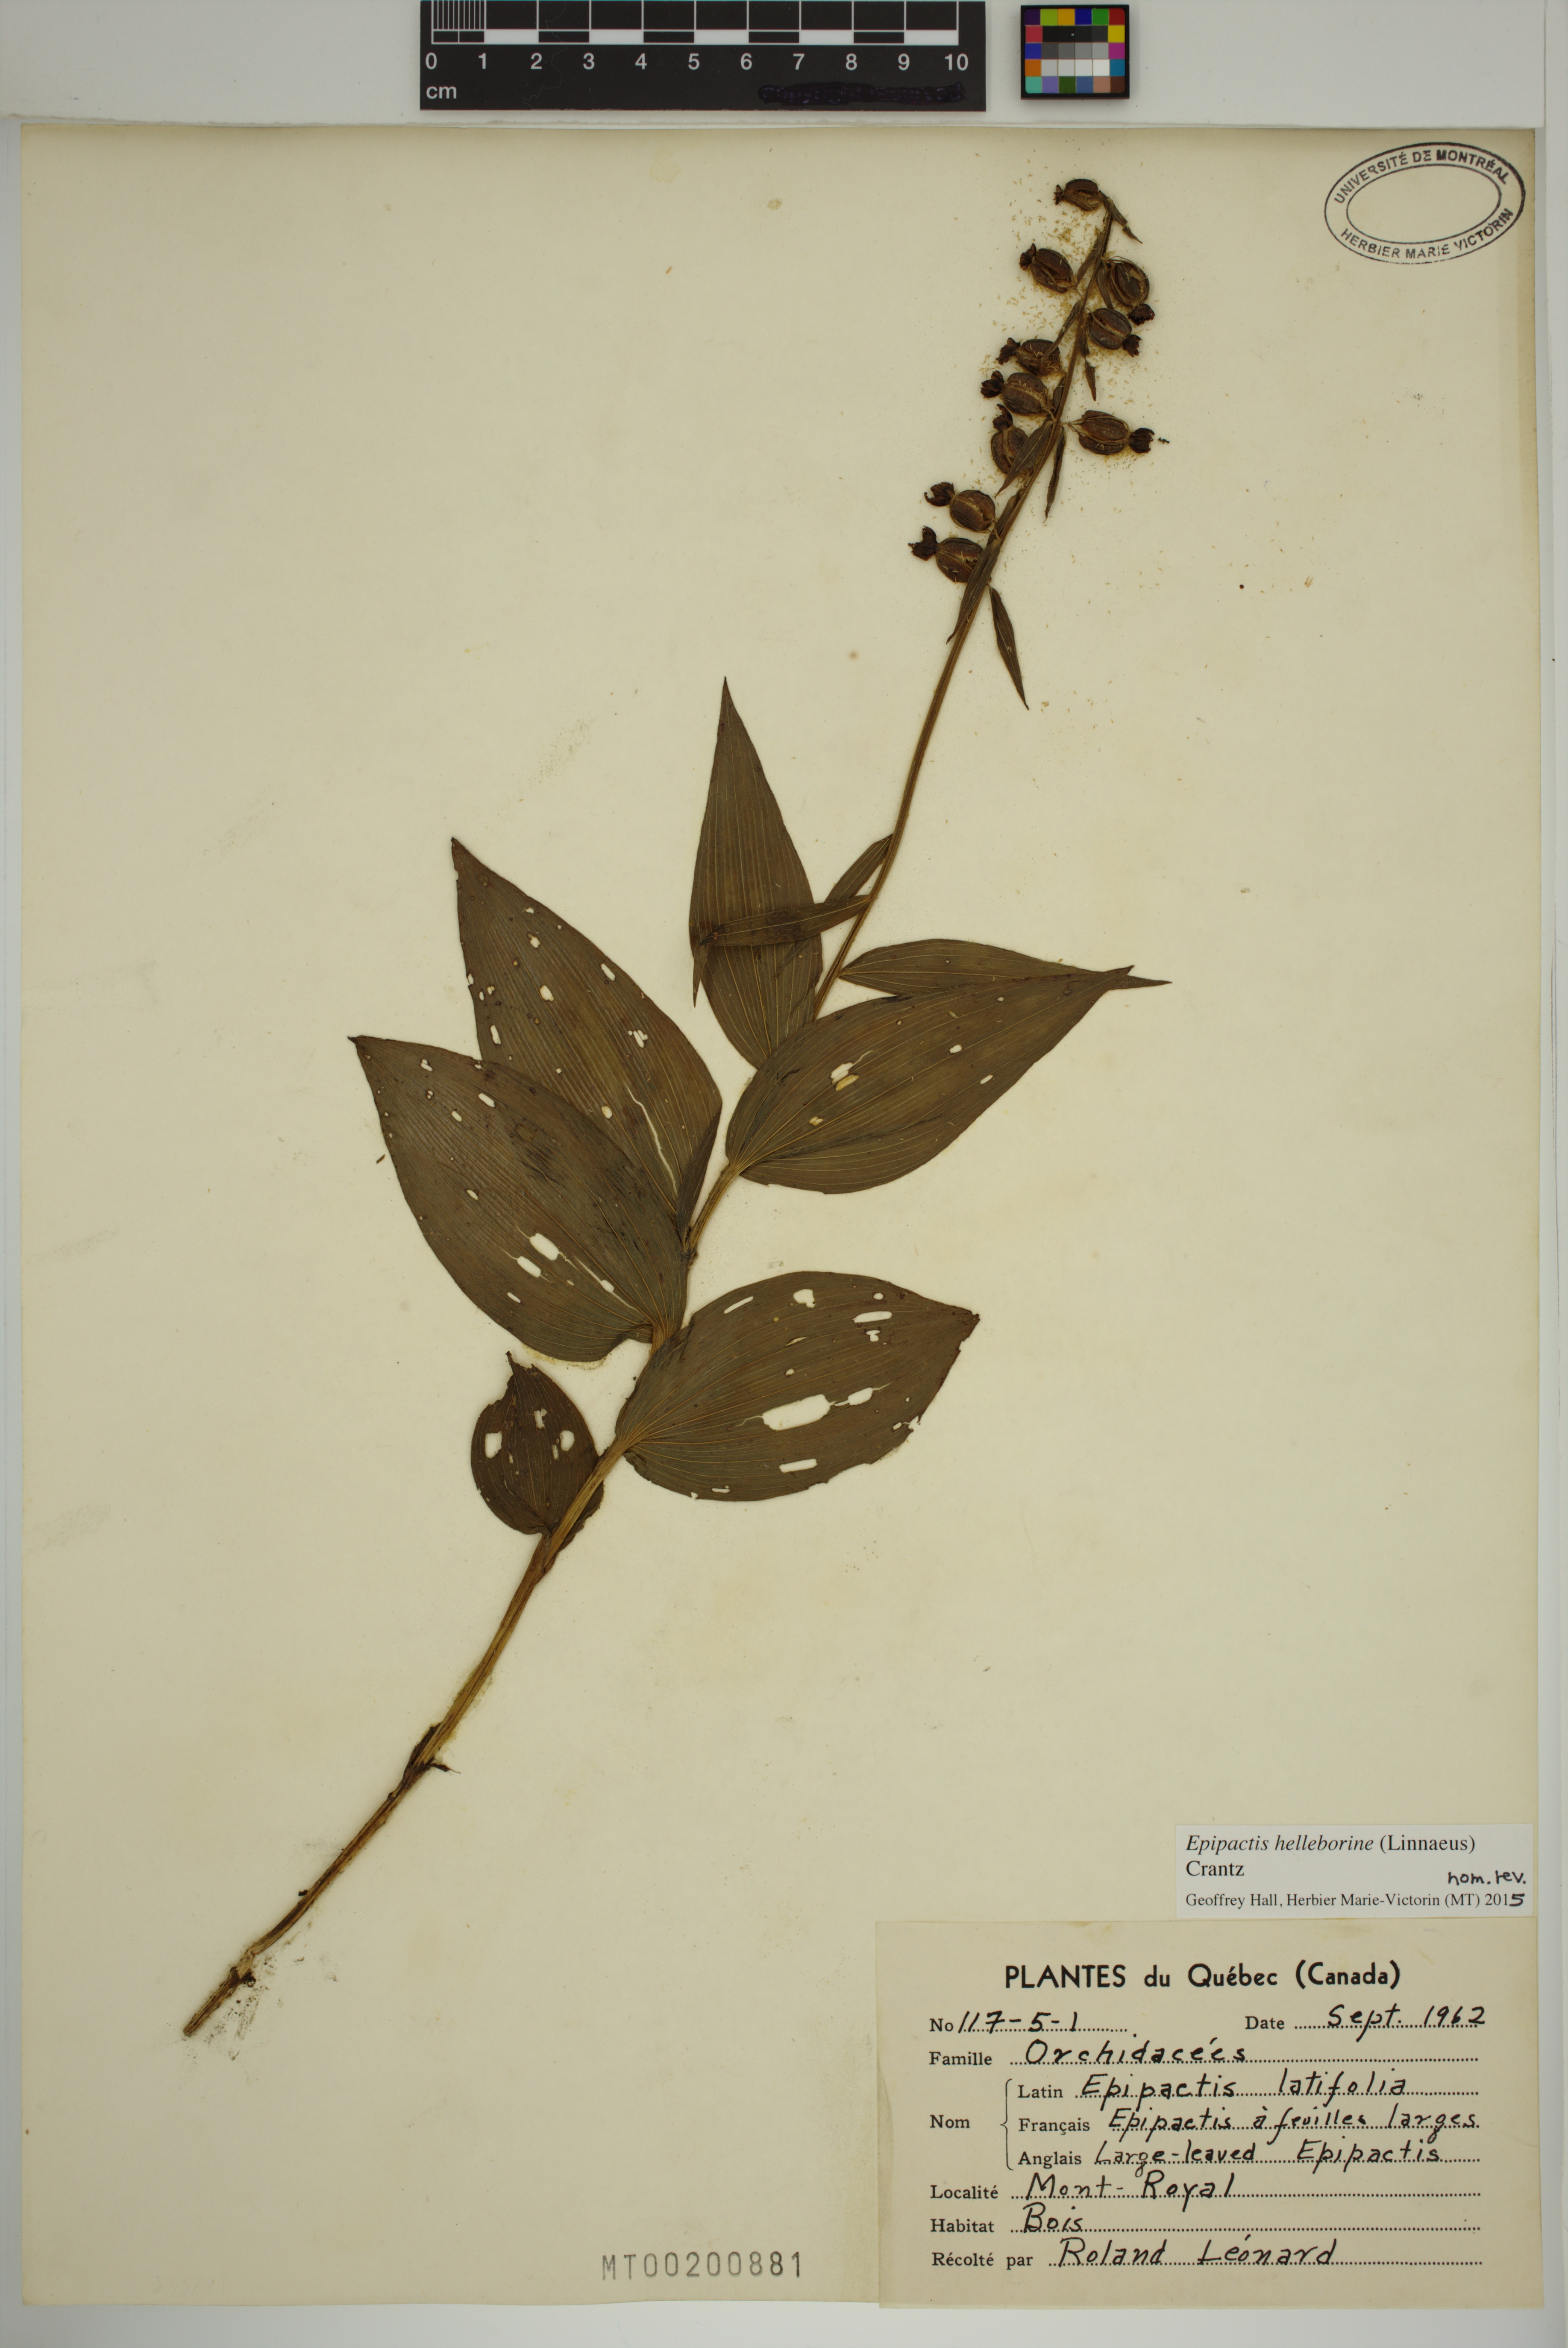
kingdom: Plantae
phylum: Tracheophyta
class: Liliopsida
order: Asparagales
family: Orchidaceae
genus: Epipactis
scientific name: Epipactis helleborine
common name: Broad-leaved helleborine
